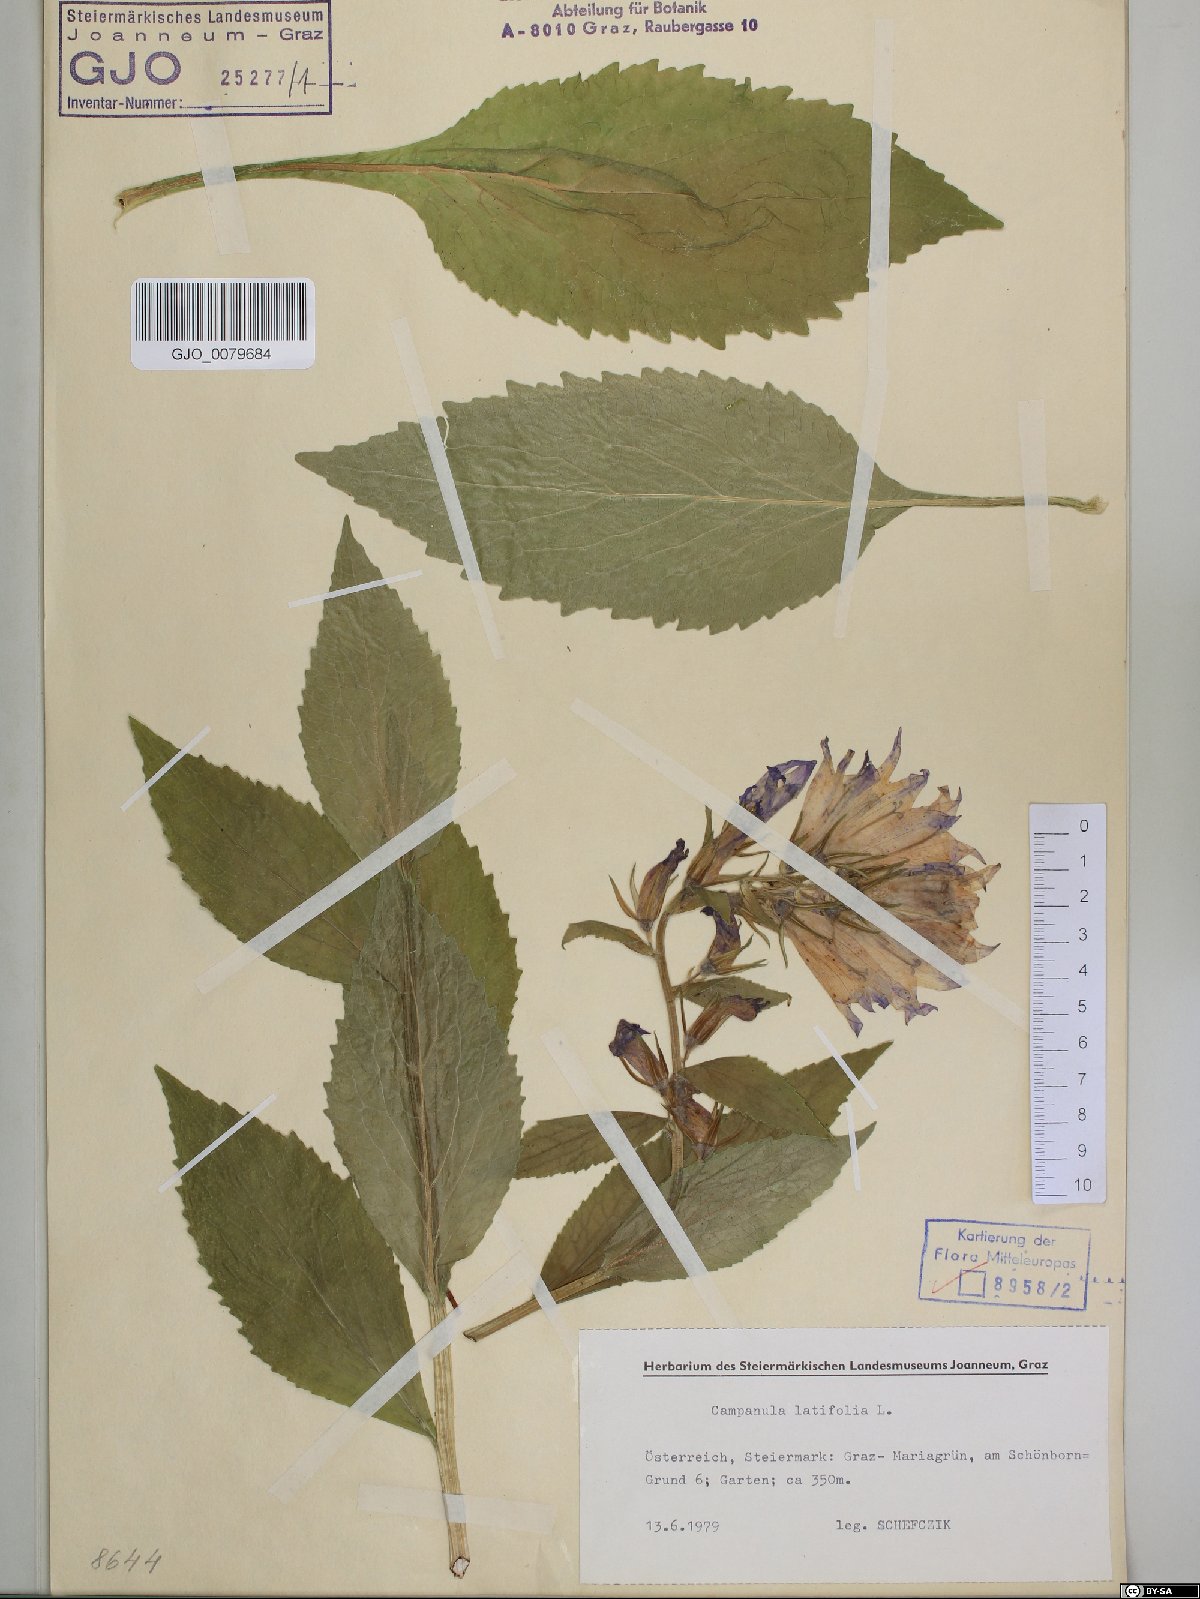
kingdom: Plantae
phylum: Tracheophyta
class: Magnoliopsida
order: Asterales
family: Campanulaceae
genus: Campanula
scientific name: Campanula latifolia
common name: Giant bellflower
